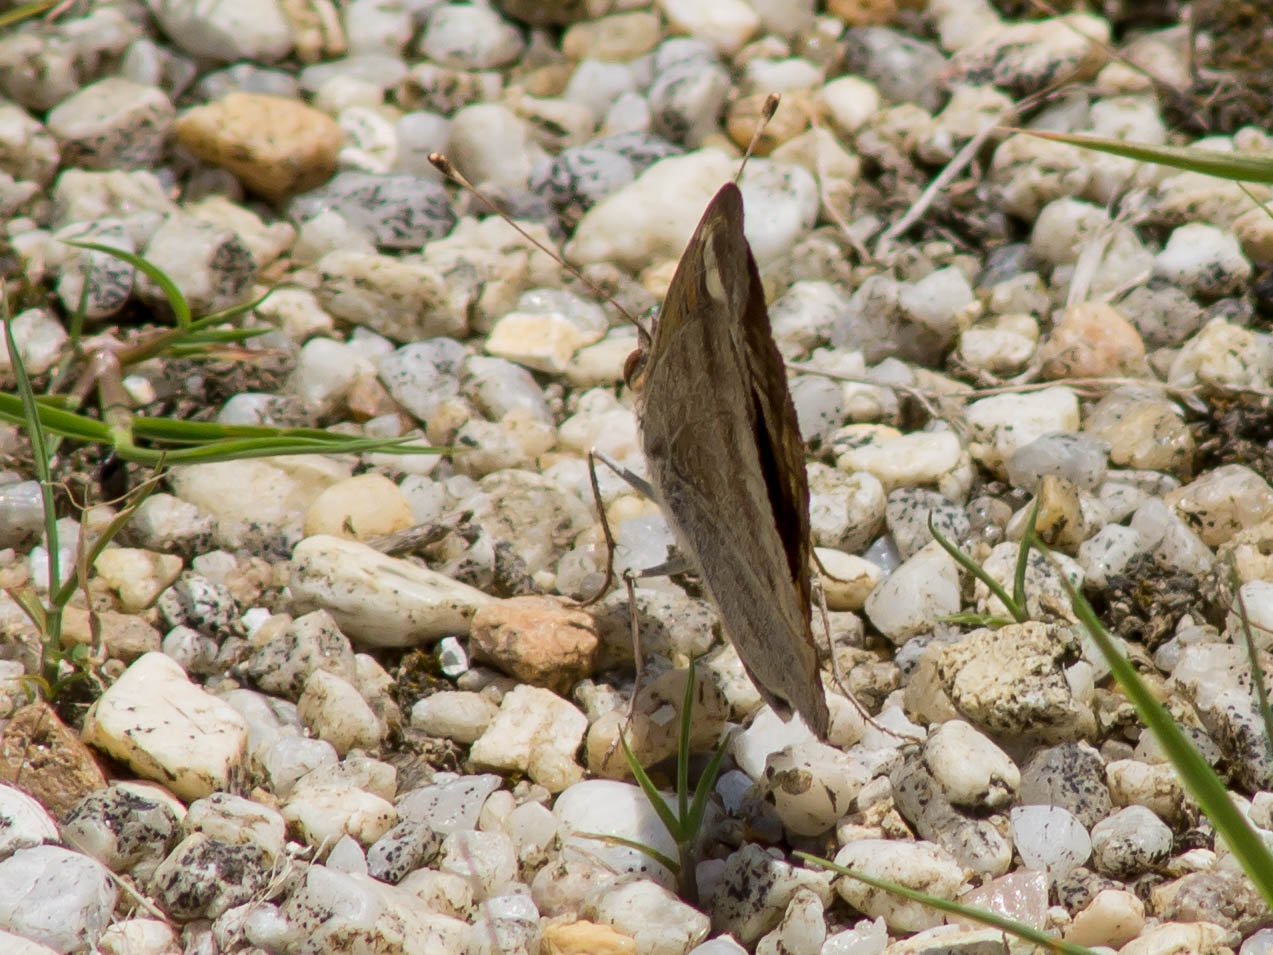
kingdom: Animalia
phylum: Arthropoda
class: Insecta
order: Lepidoptera
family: Nymphalidae
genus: Junonia
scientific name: Junonia coenia
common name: Common Buckeye
